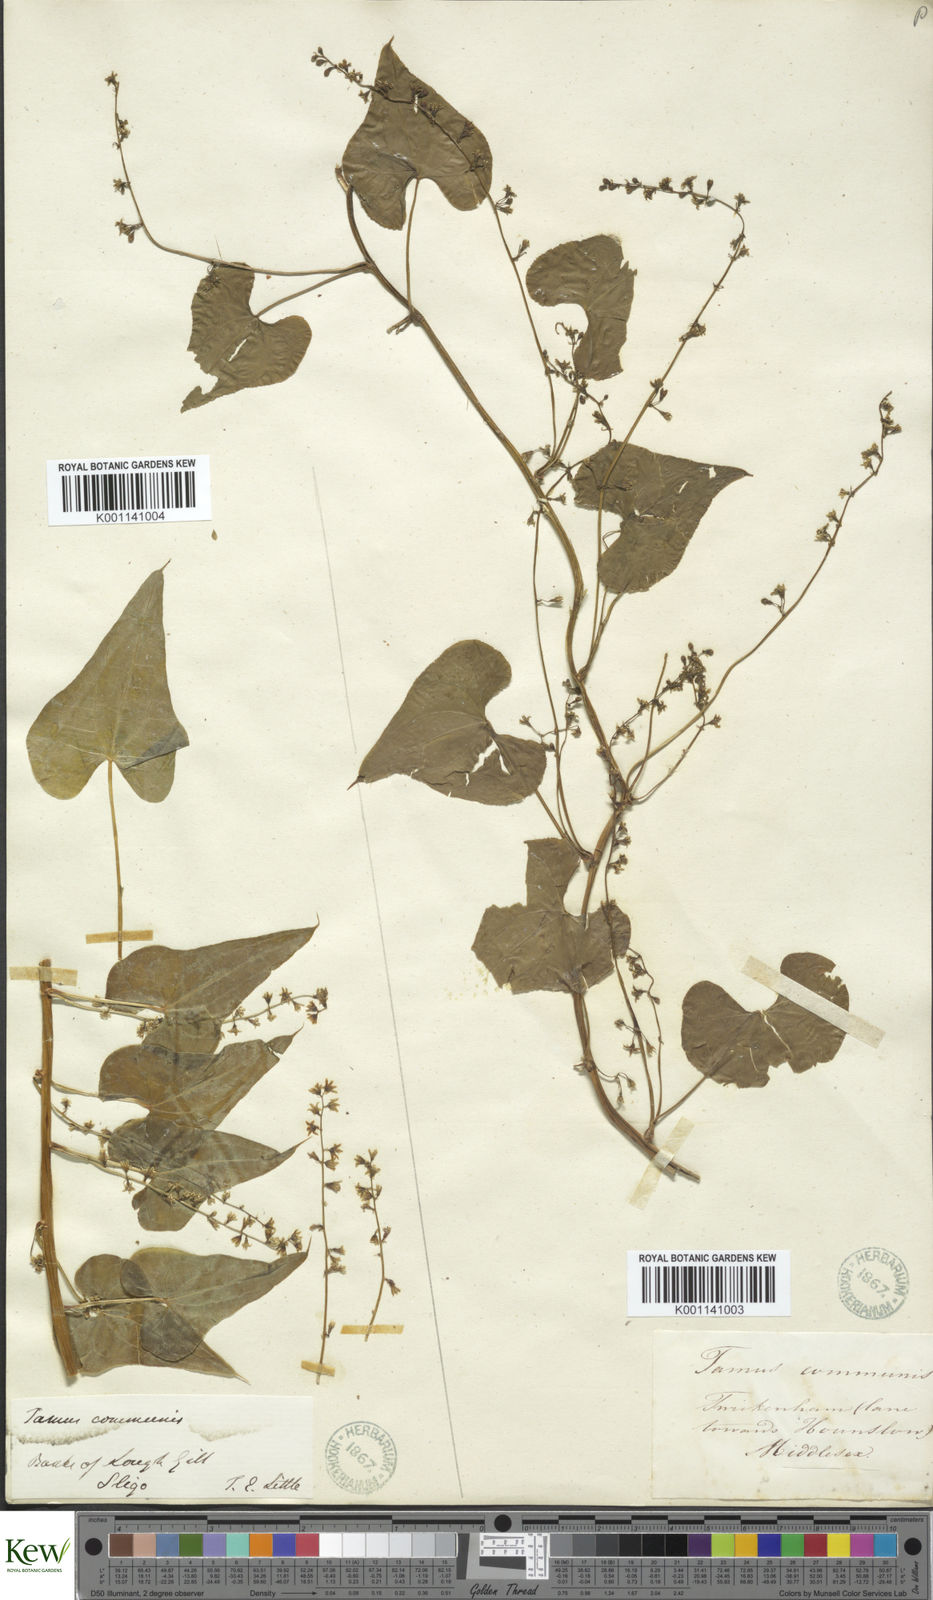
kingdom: Plantae
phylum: Tracheophyta
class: Liliopsida
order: Dioscoreales
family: Dioscoreaceae
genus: Dioscorea
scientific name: Dioscorea communis
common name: Black-bindweed
